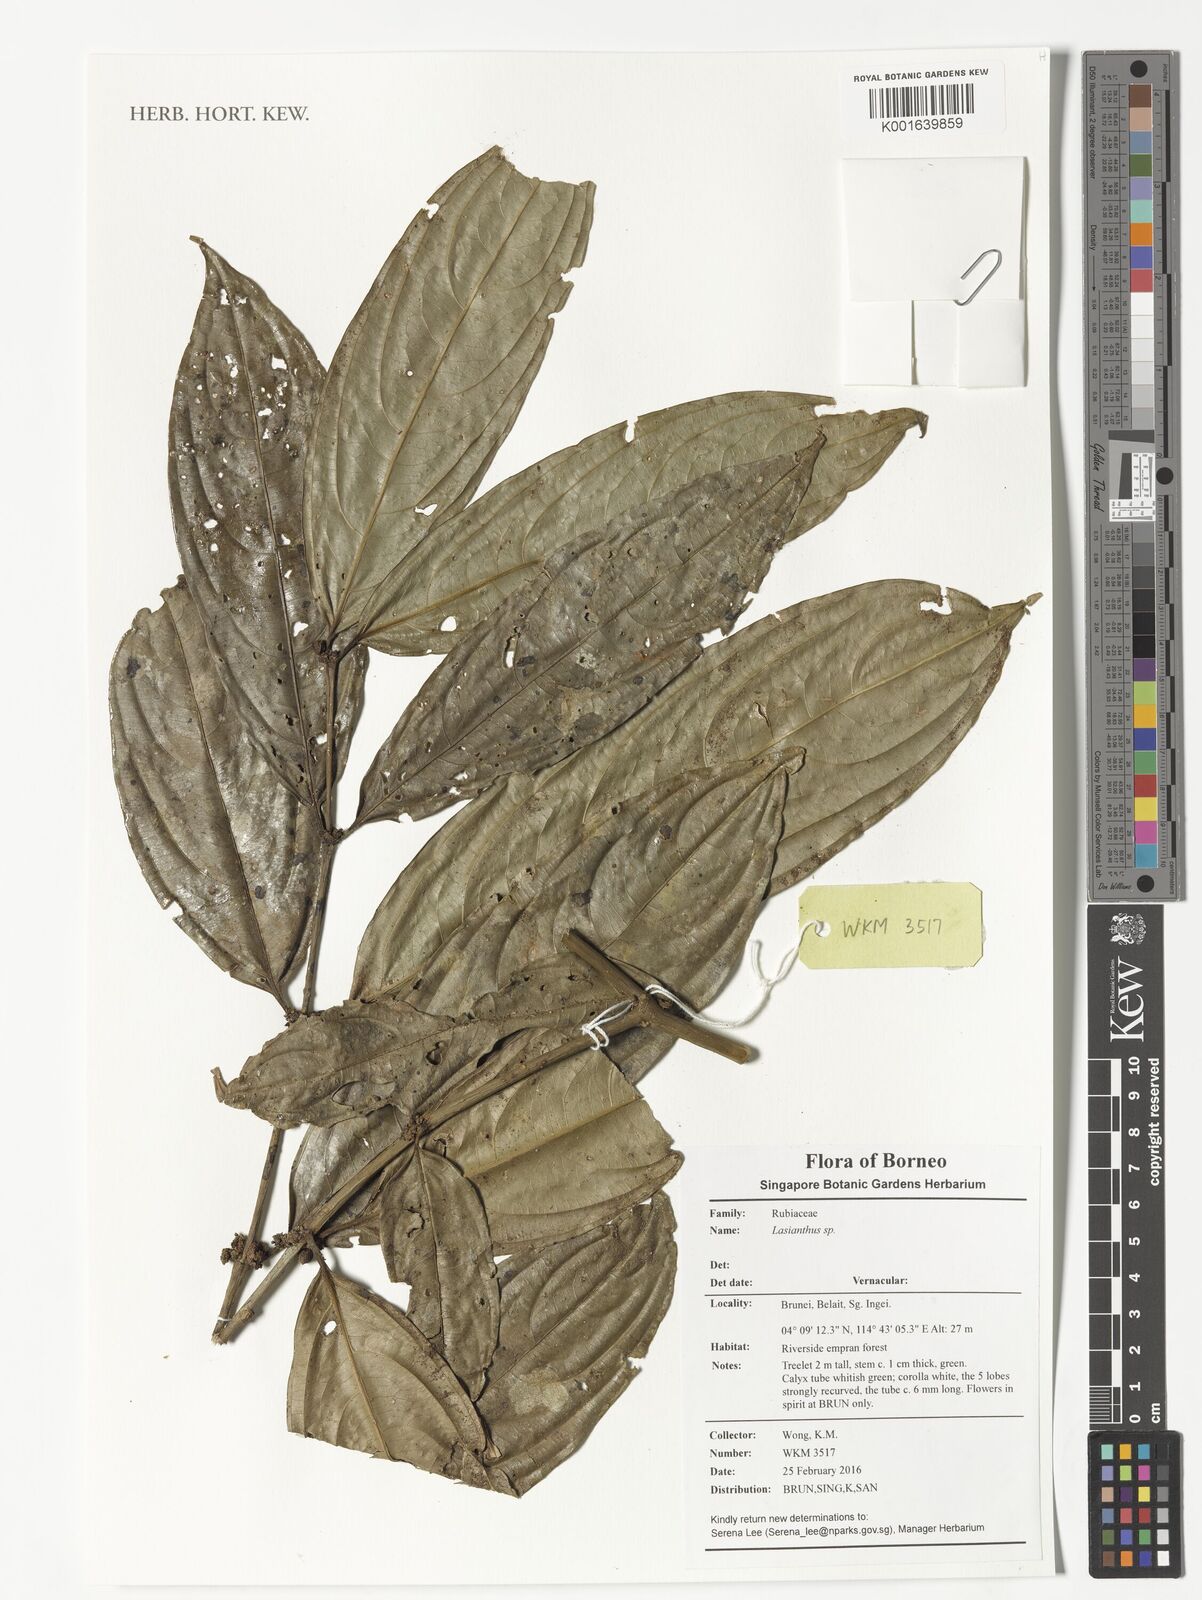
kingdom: Plantae
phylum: Tracheophyta
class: Magnoliopsida
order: Gentianales
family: Rubiaceae
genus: Lasianthus
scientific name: Lasianthus
